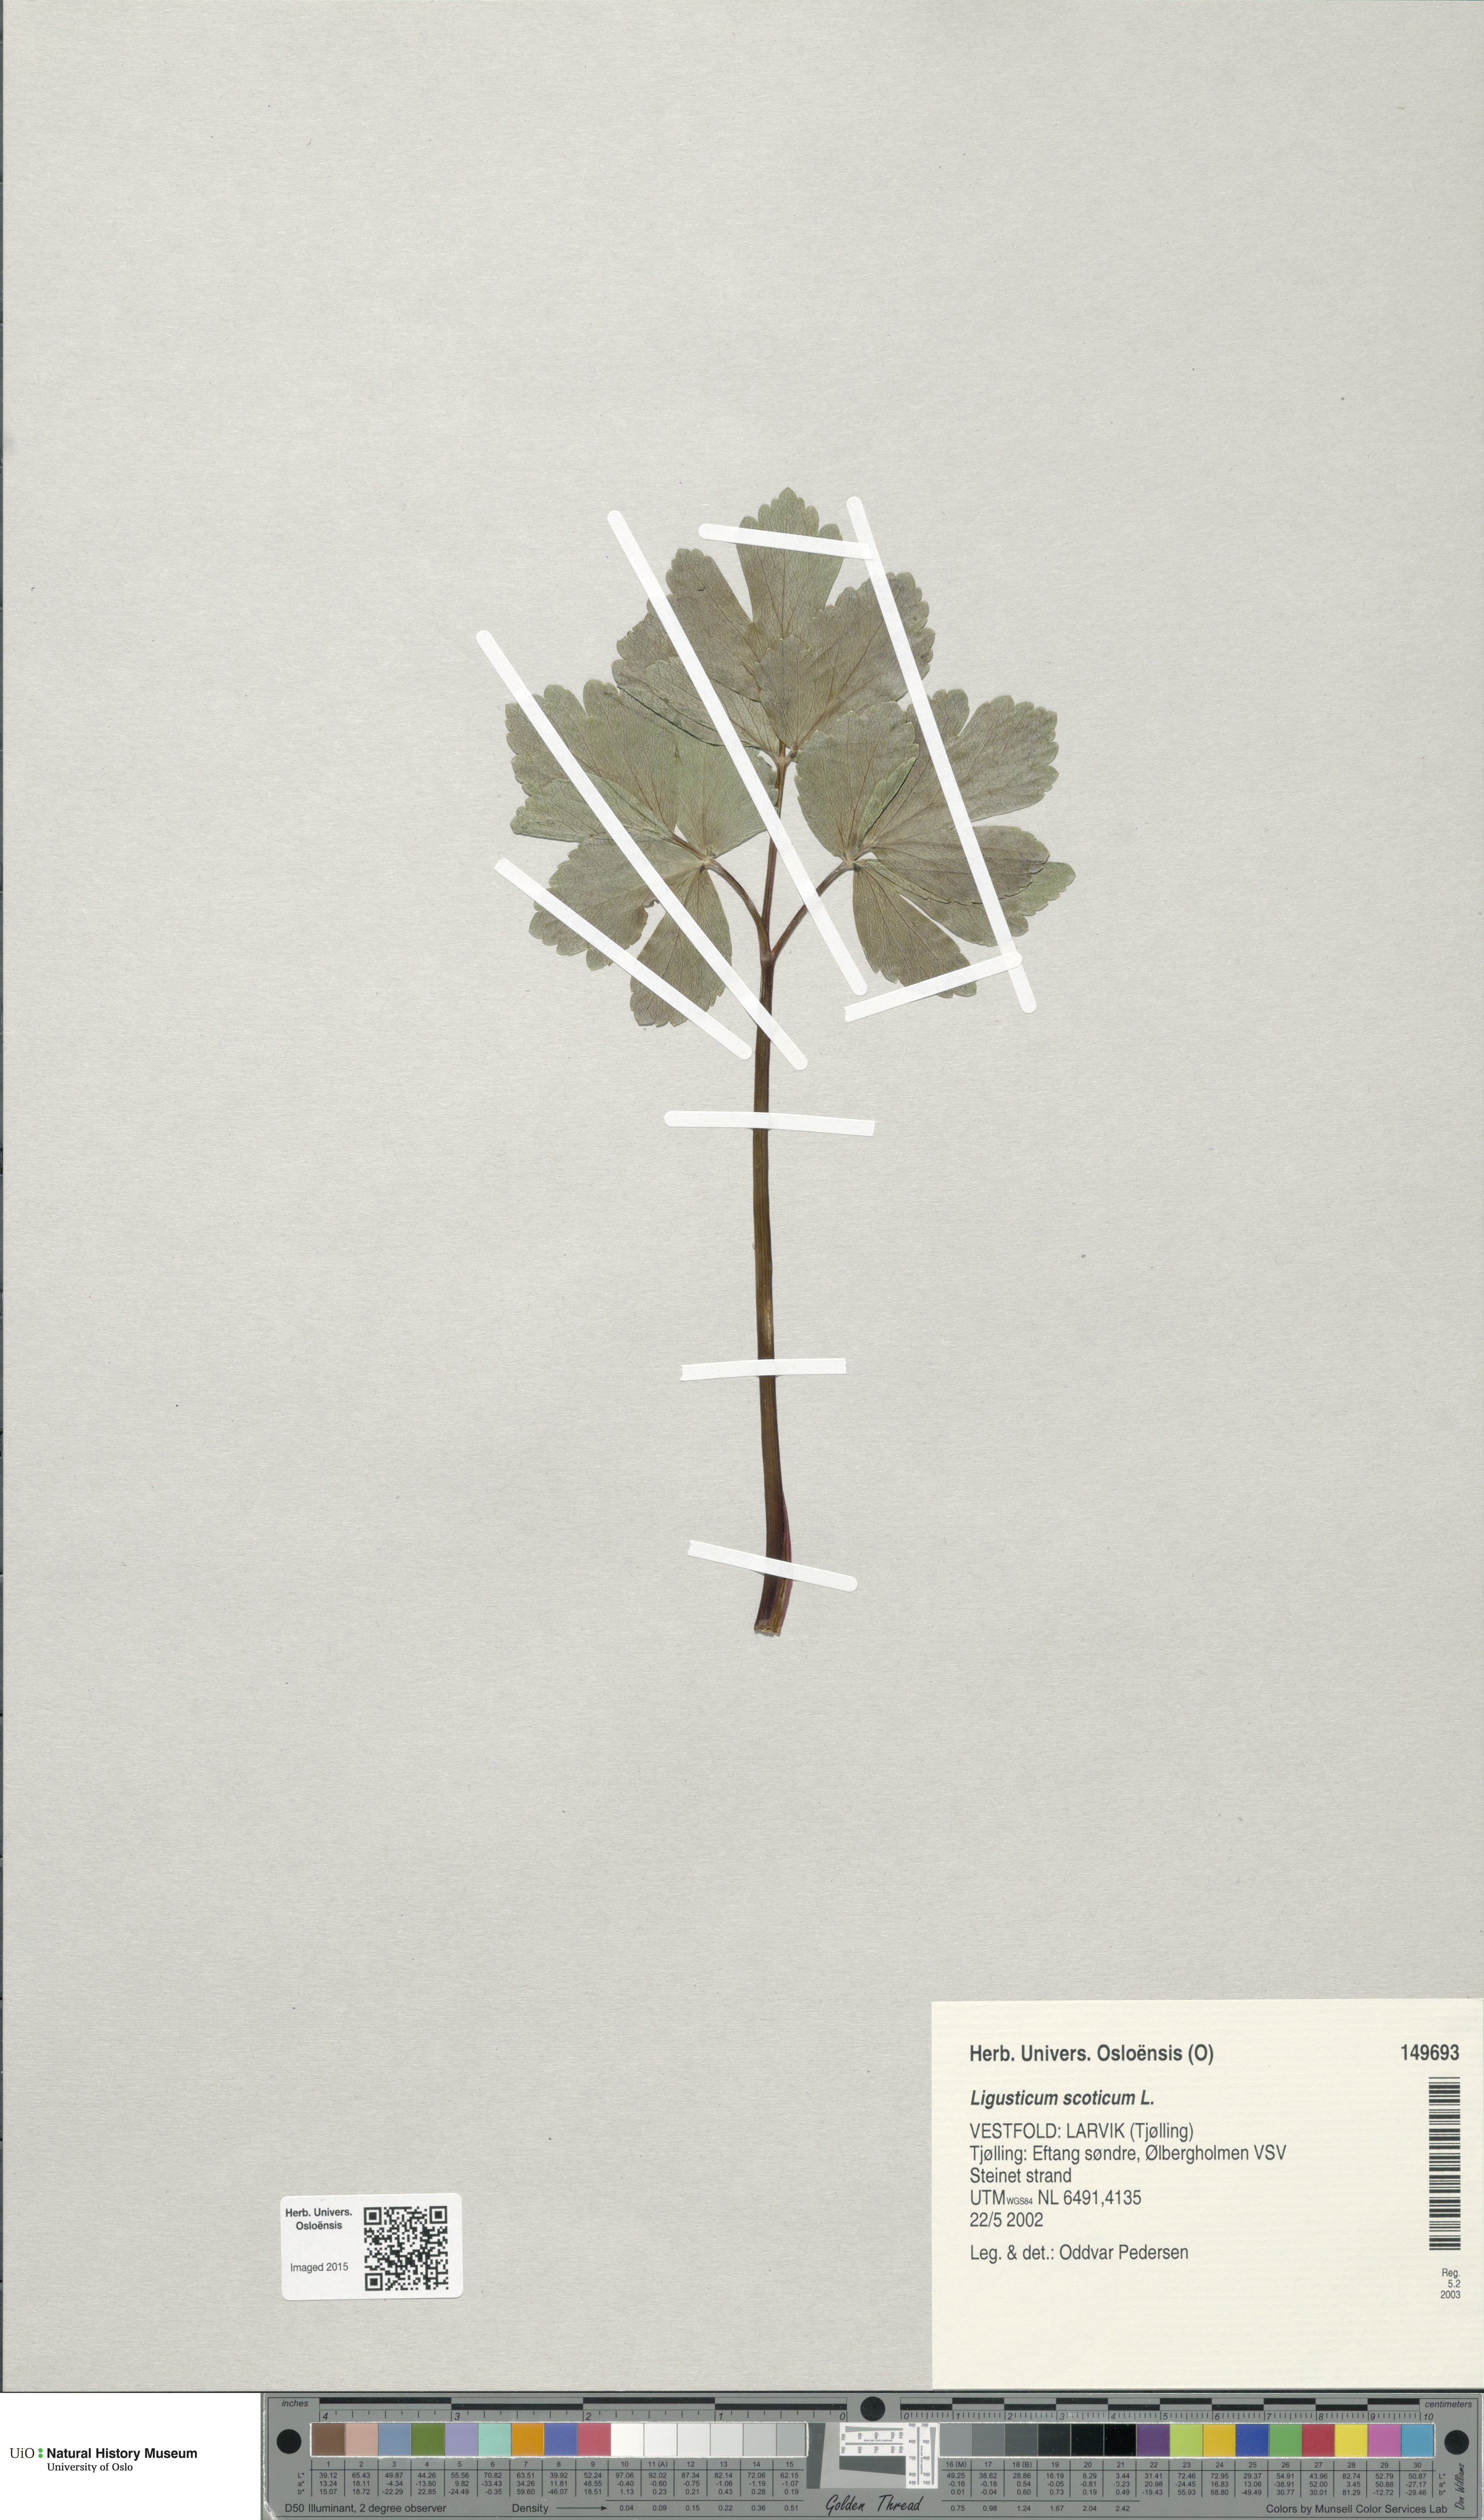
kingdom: Plantae
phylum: Tracheophyta
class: Magnoliopsida
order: Apiales
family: Apiaceae
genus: Ligusticum
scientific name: Ligusticum scothicum
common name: Beach lovage
